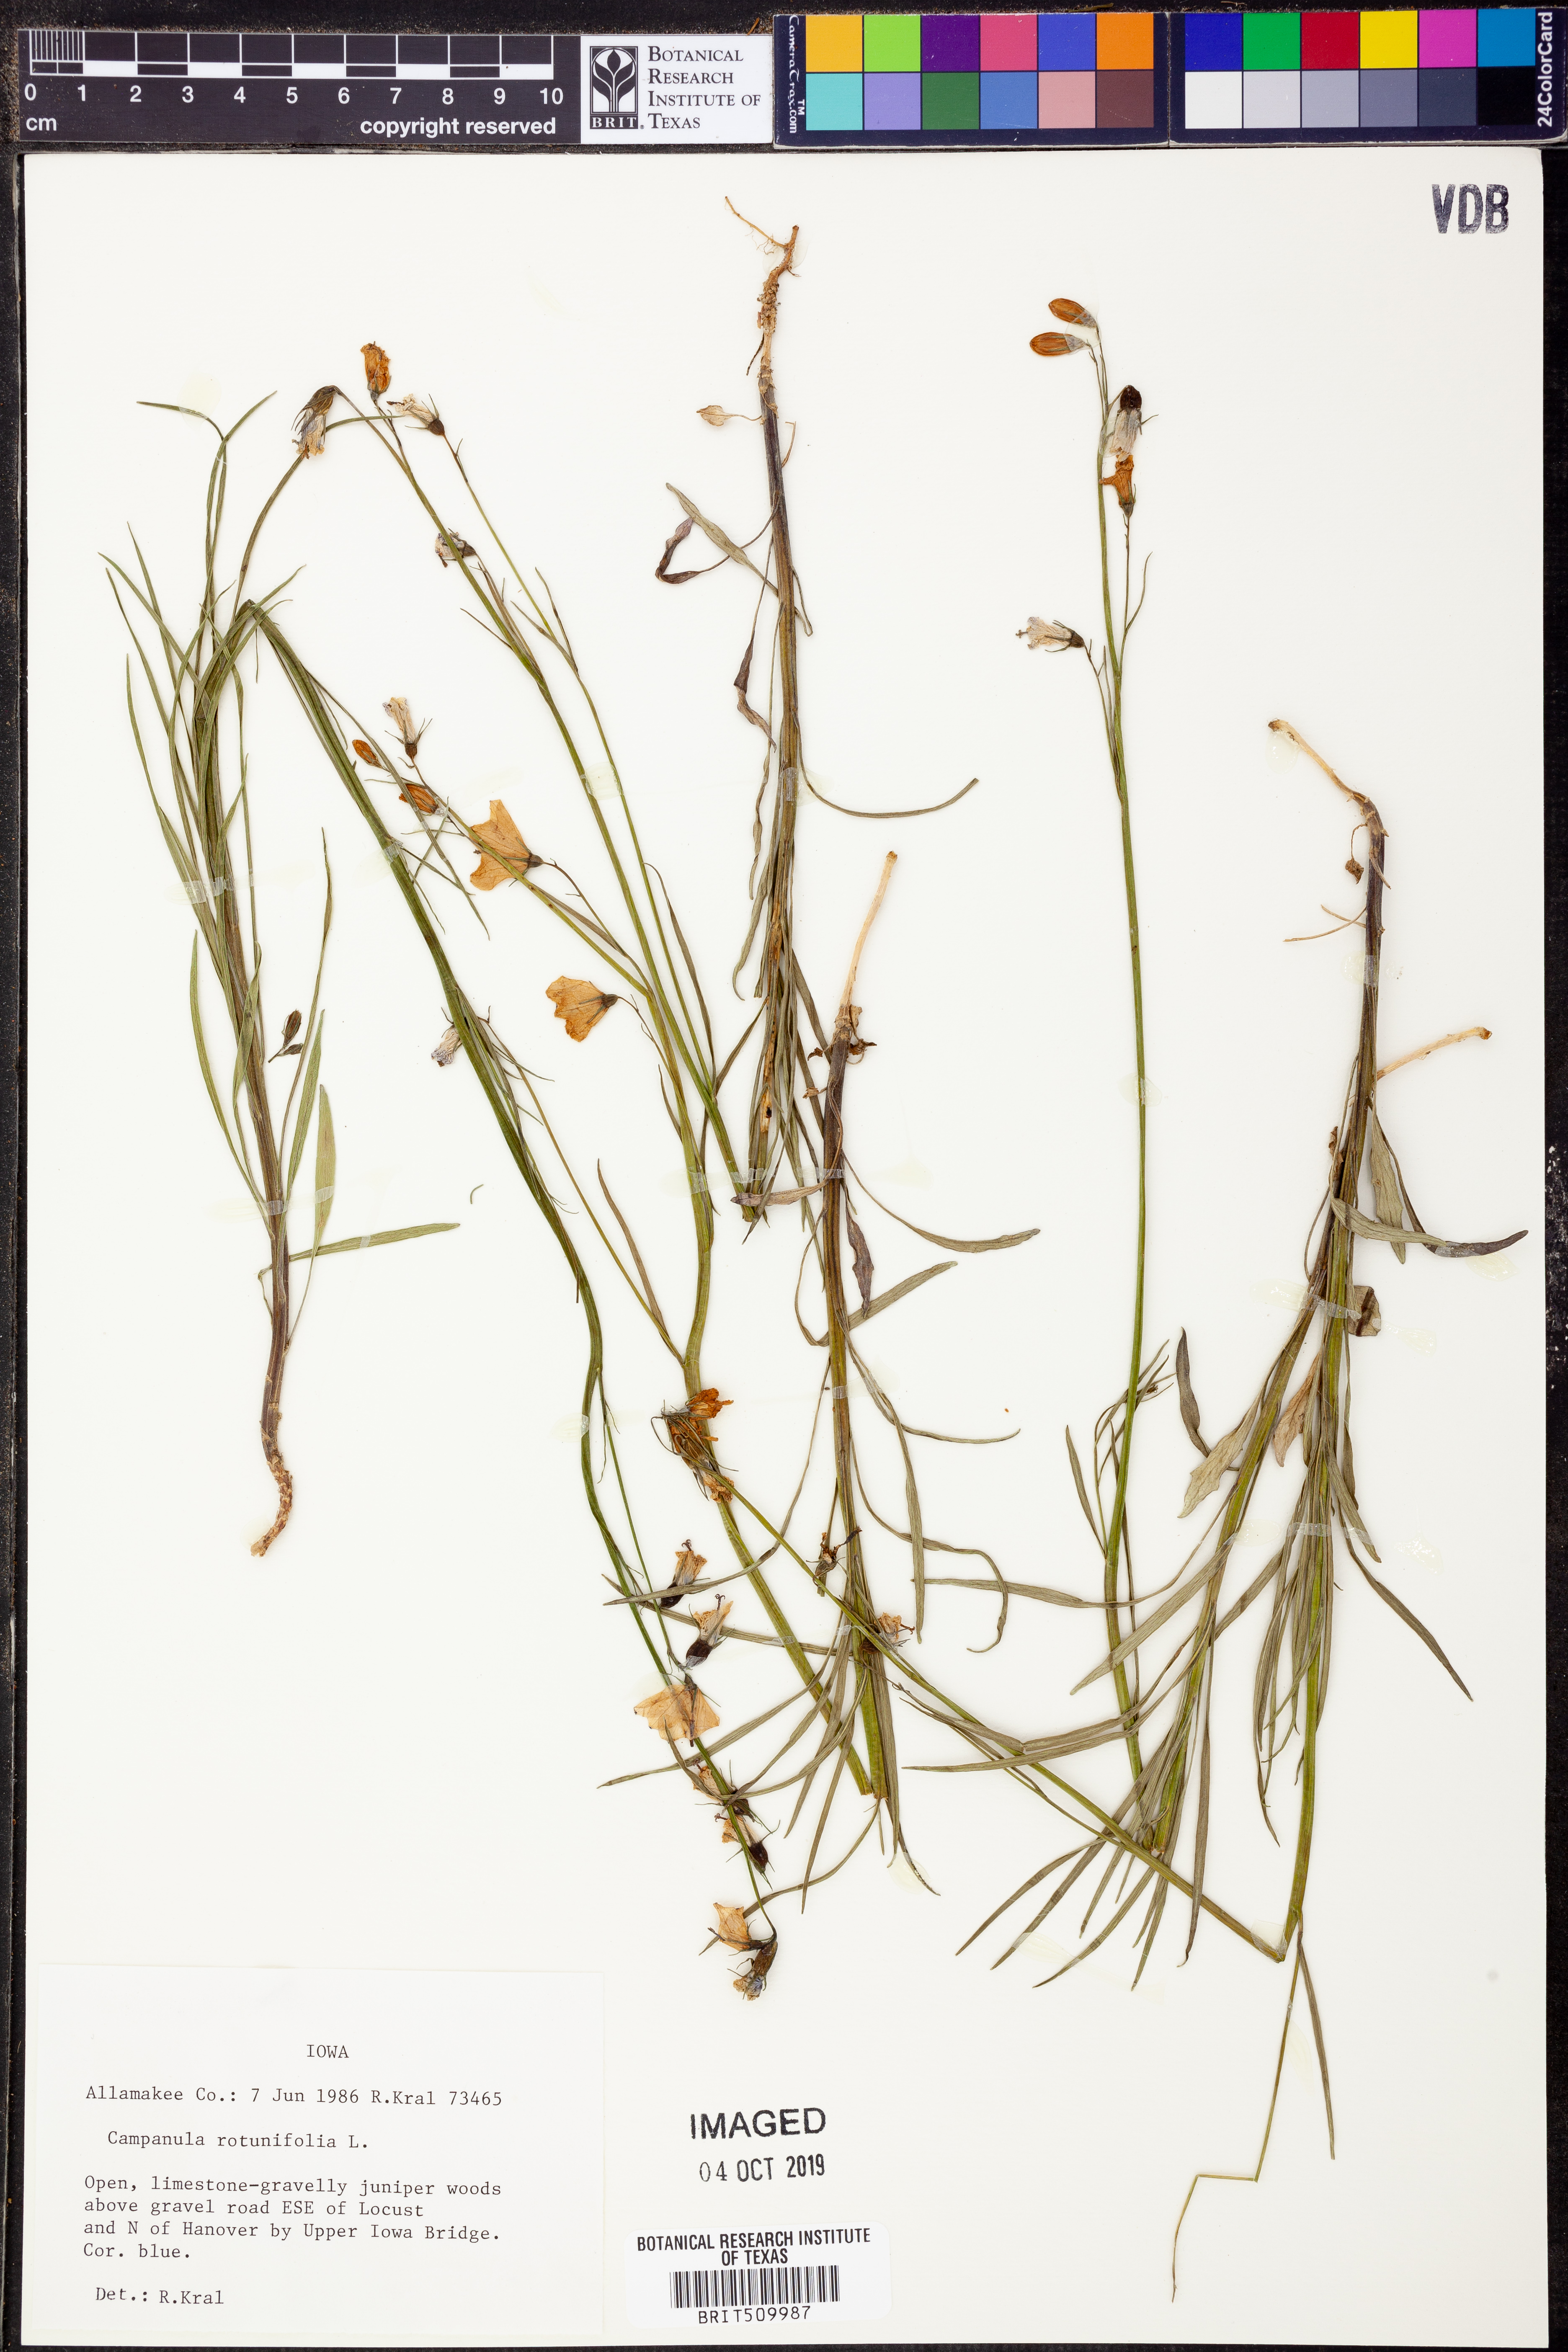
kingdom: Plantae
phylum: Tracheophyta
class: Magnoliopsida
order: Asterales
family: Campanulaceae
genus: Campanula
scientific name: Campanula rotundifolia
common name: Harebell
